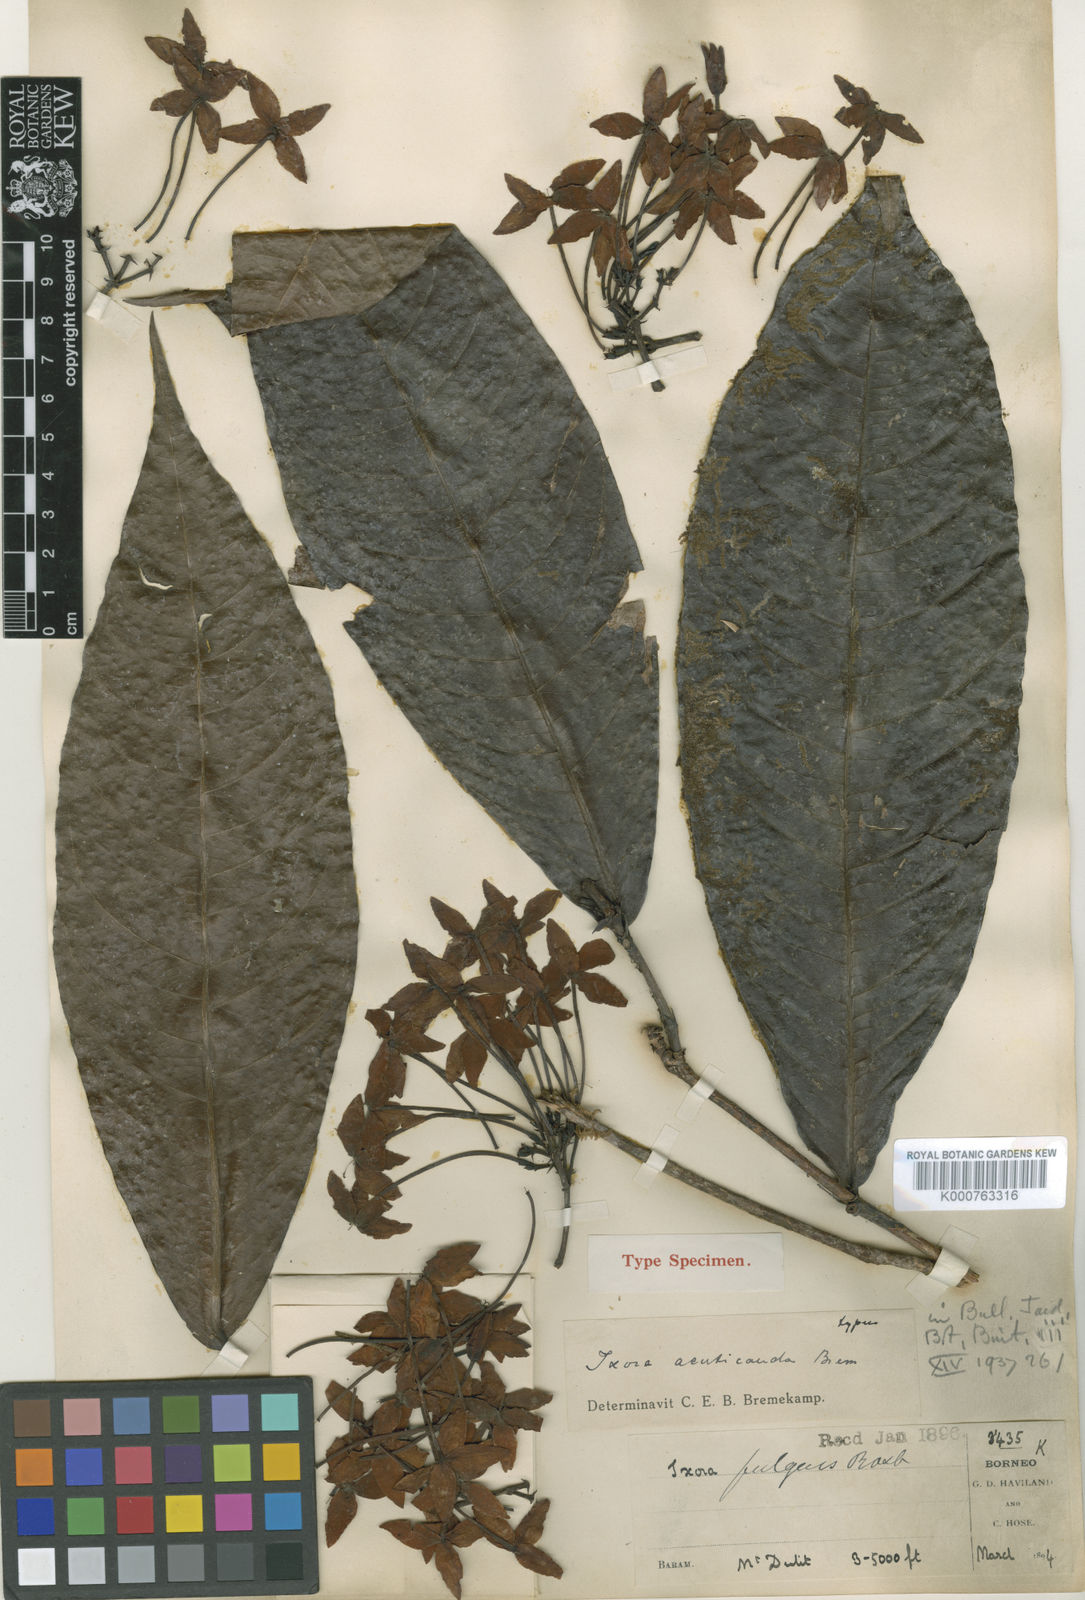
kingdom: Plantae
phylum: Tracheophyta
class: Magnoliopsida
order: Gentianales
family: Rubiaceae
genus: Ixora
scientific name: Ixora acuticauda
